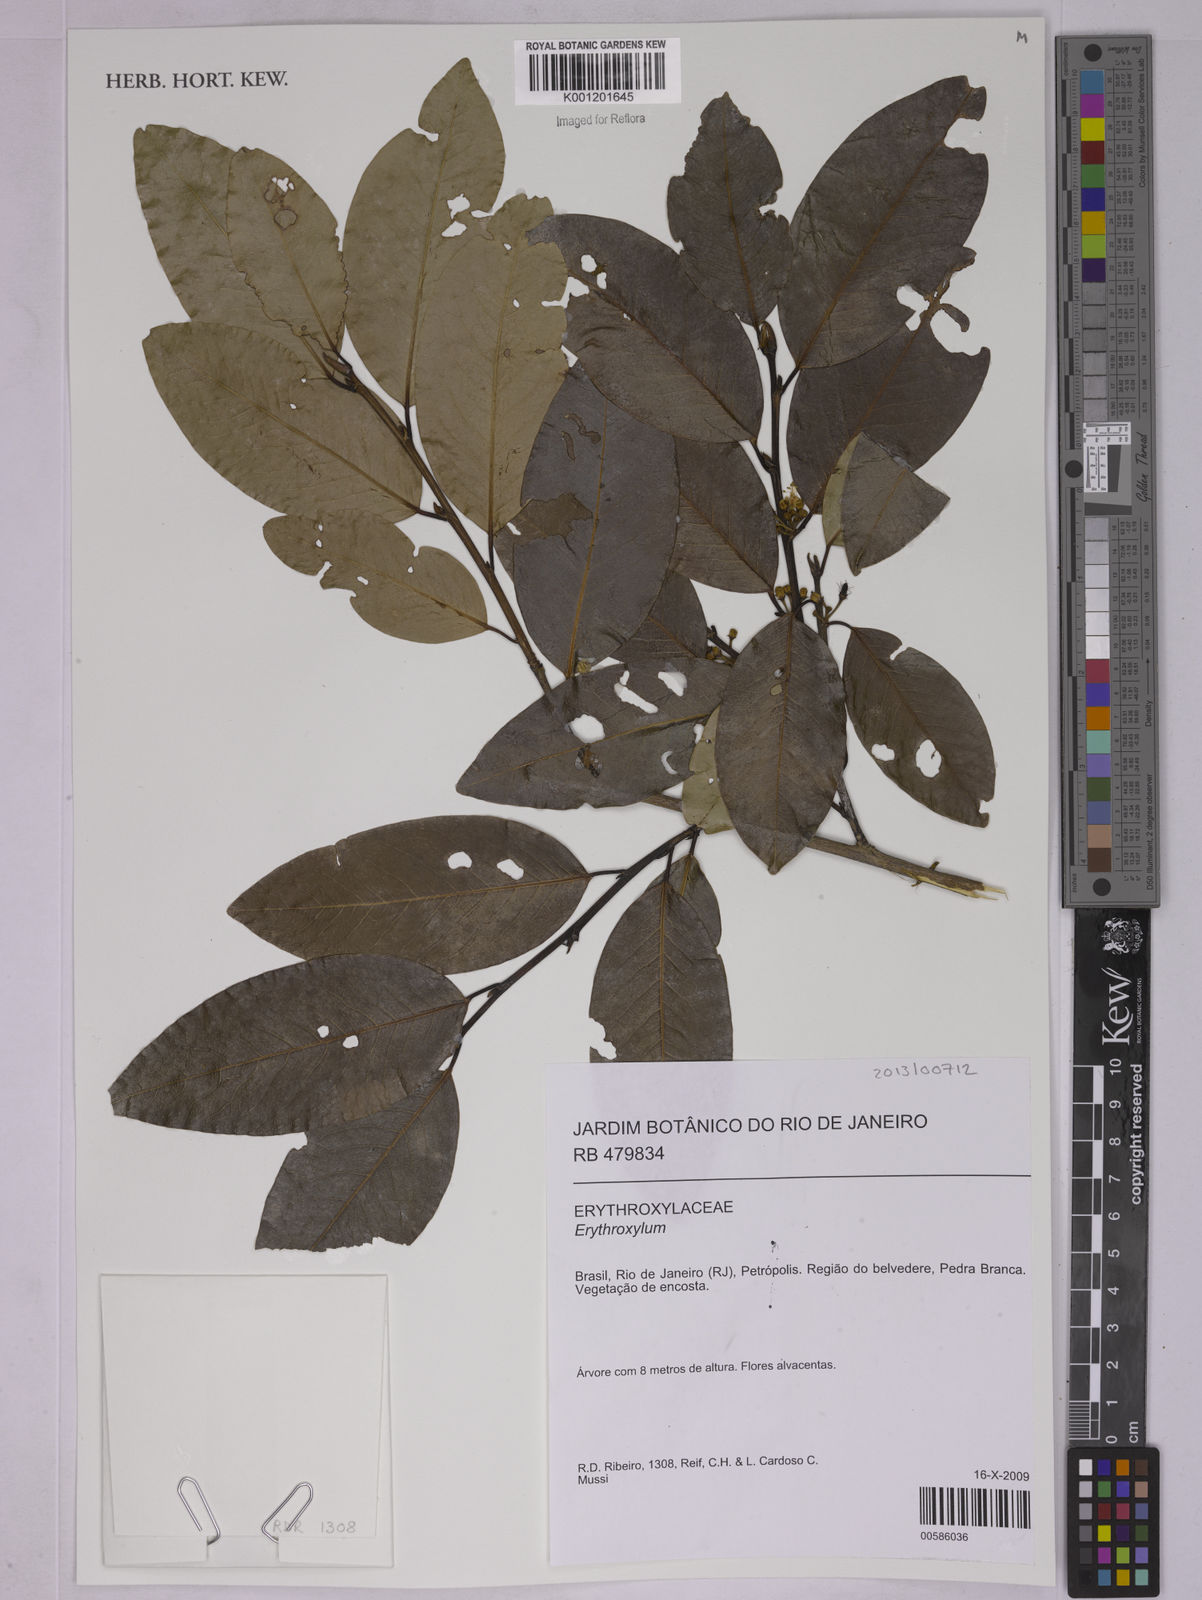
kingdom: Plantae
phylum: Tracheophyta
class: Magnoliopsida
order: Malpighiales
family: Erythroxylaceae
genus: Erythroxylum
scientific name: Erythroxylum
